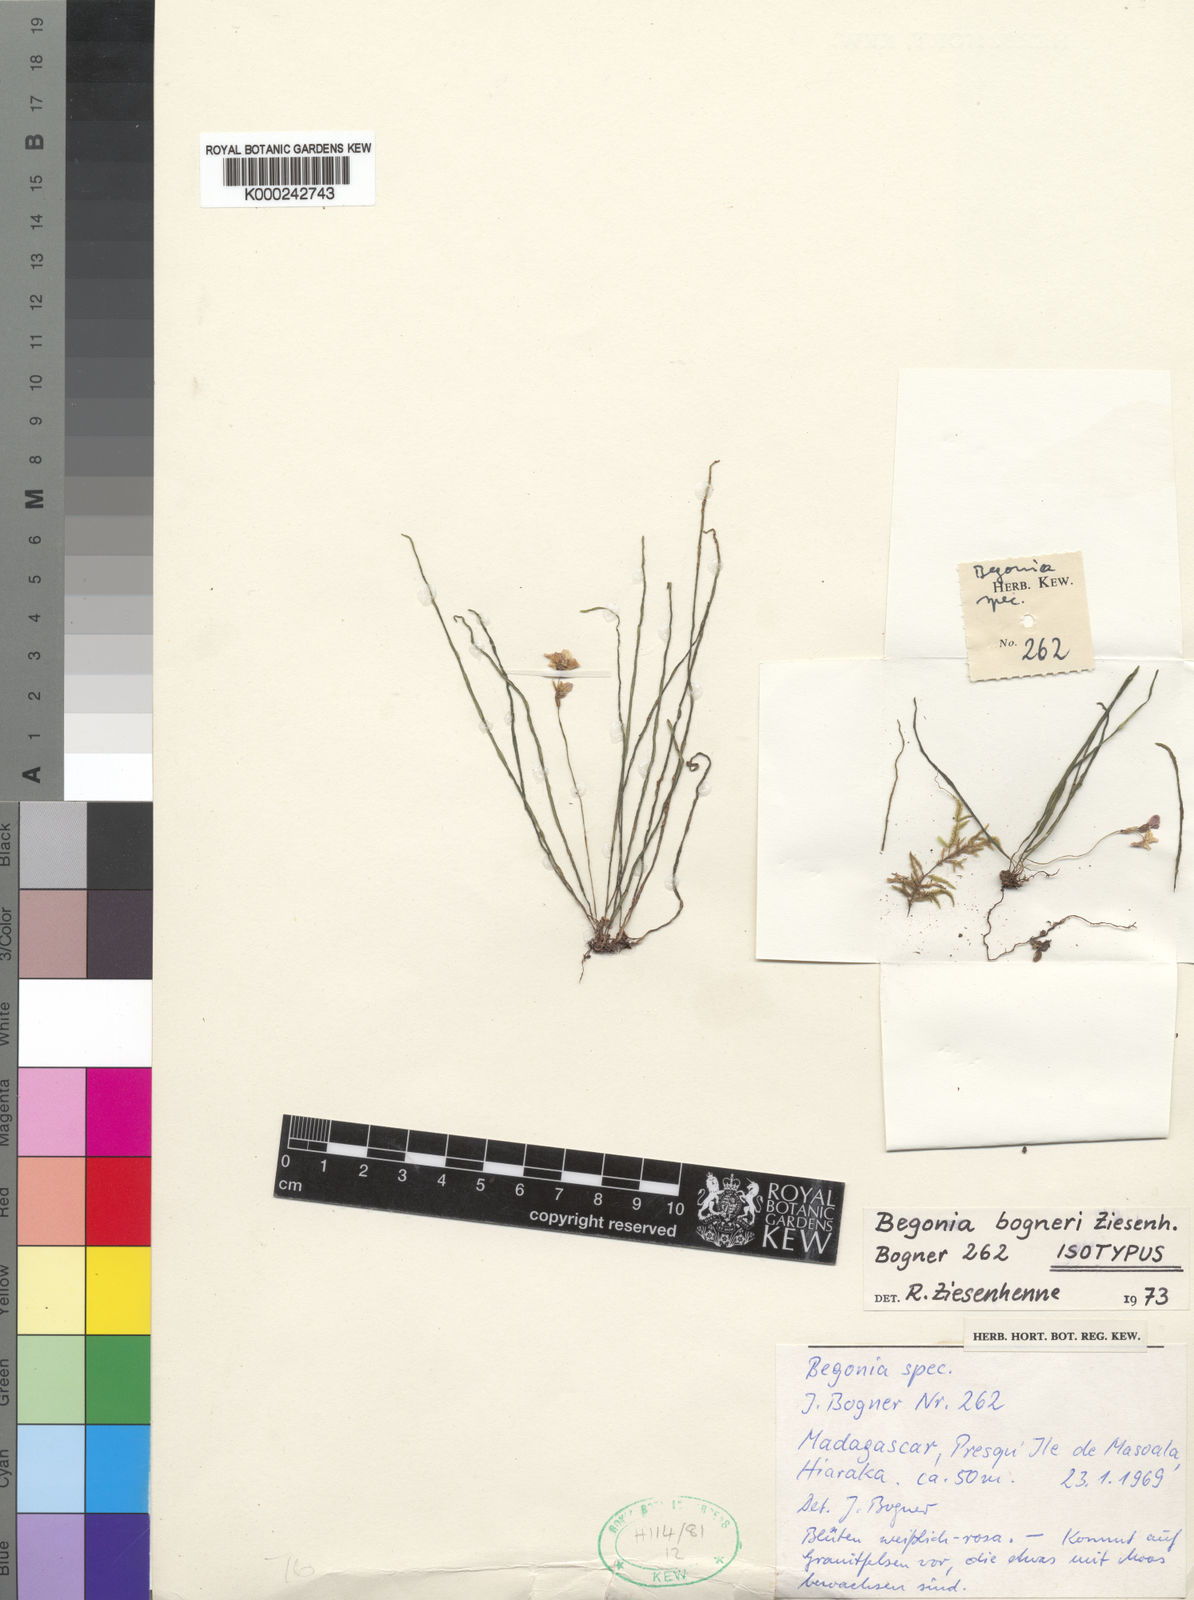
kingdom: Plantae
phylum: Tracheophyta
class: Magnoliopsida
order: Cucurbitales
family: Begoniaceae
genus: Begonia
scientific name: Begonia bogneri
